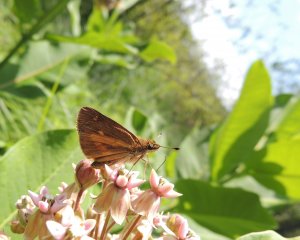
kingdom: Animalia
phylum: Arthropoda
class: Insecta
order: Lepidoptera
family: Hesperiidae
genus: Poanes
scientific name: Poanes viator
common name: Broad-winged Skipper
